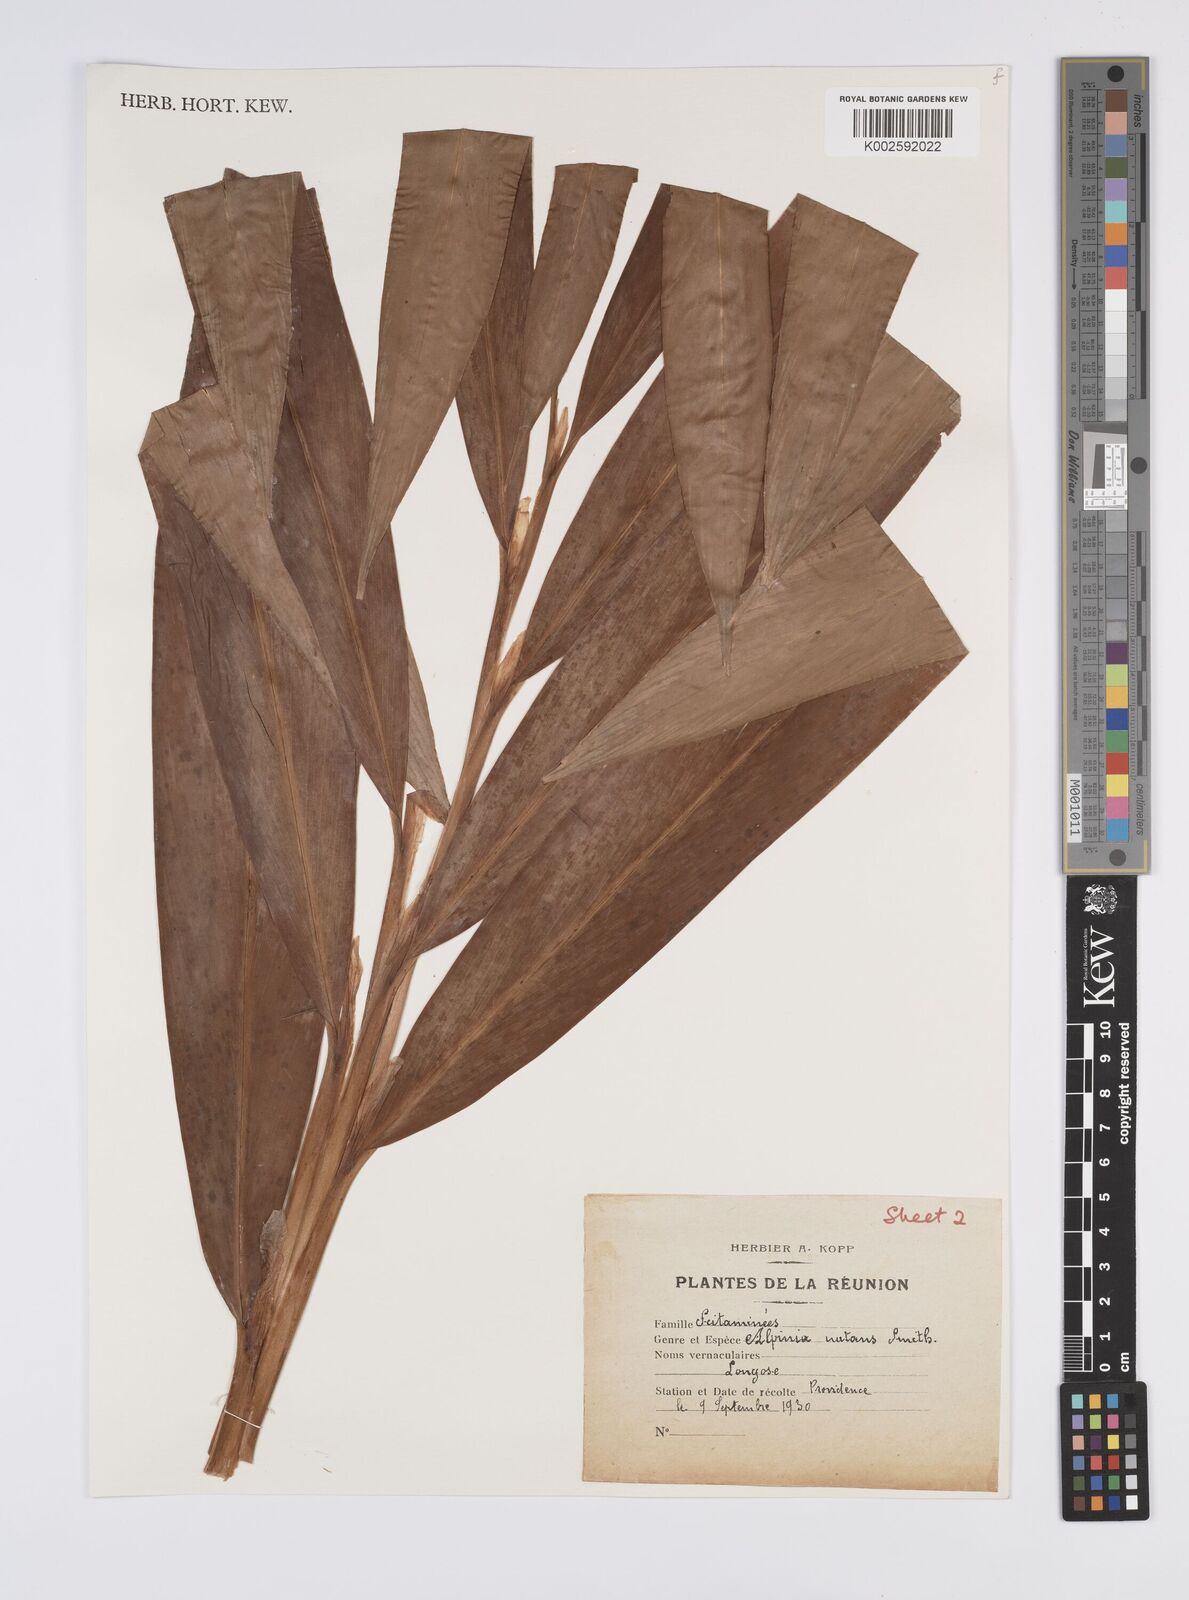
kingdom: Plantae
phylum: Tracheophyta
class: Liliopsida
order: Zingiberales
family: Zingiberaceae
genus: Alpinia
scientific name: Alpinia zerumbet
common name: Shellplant
